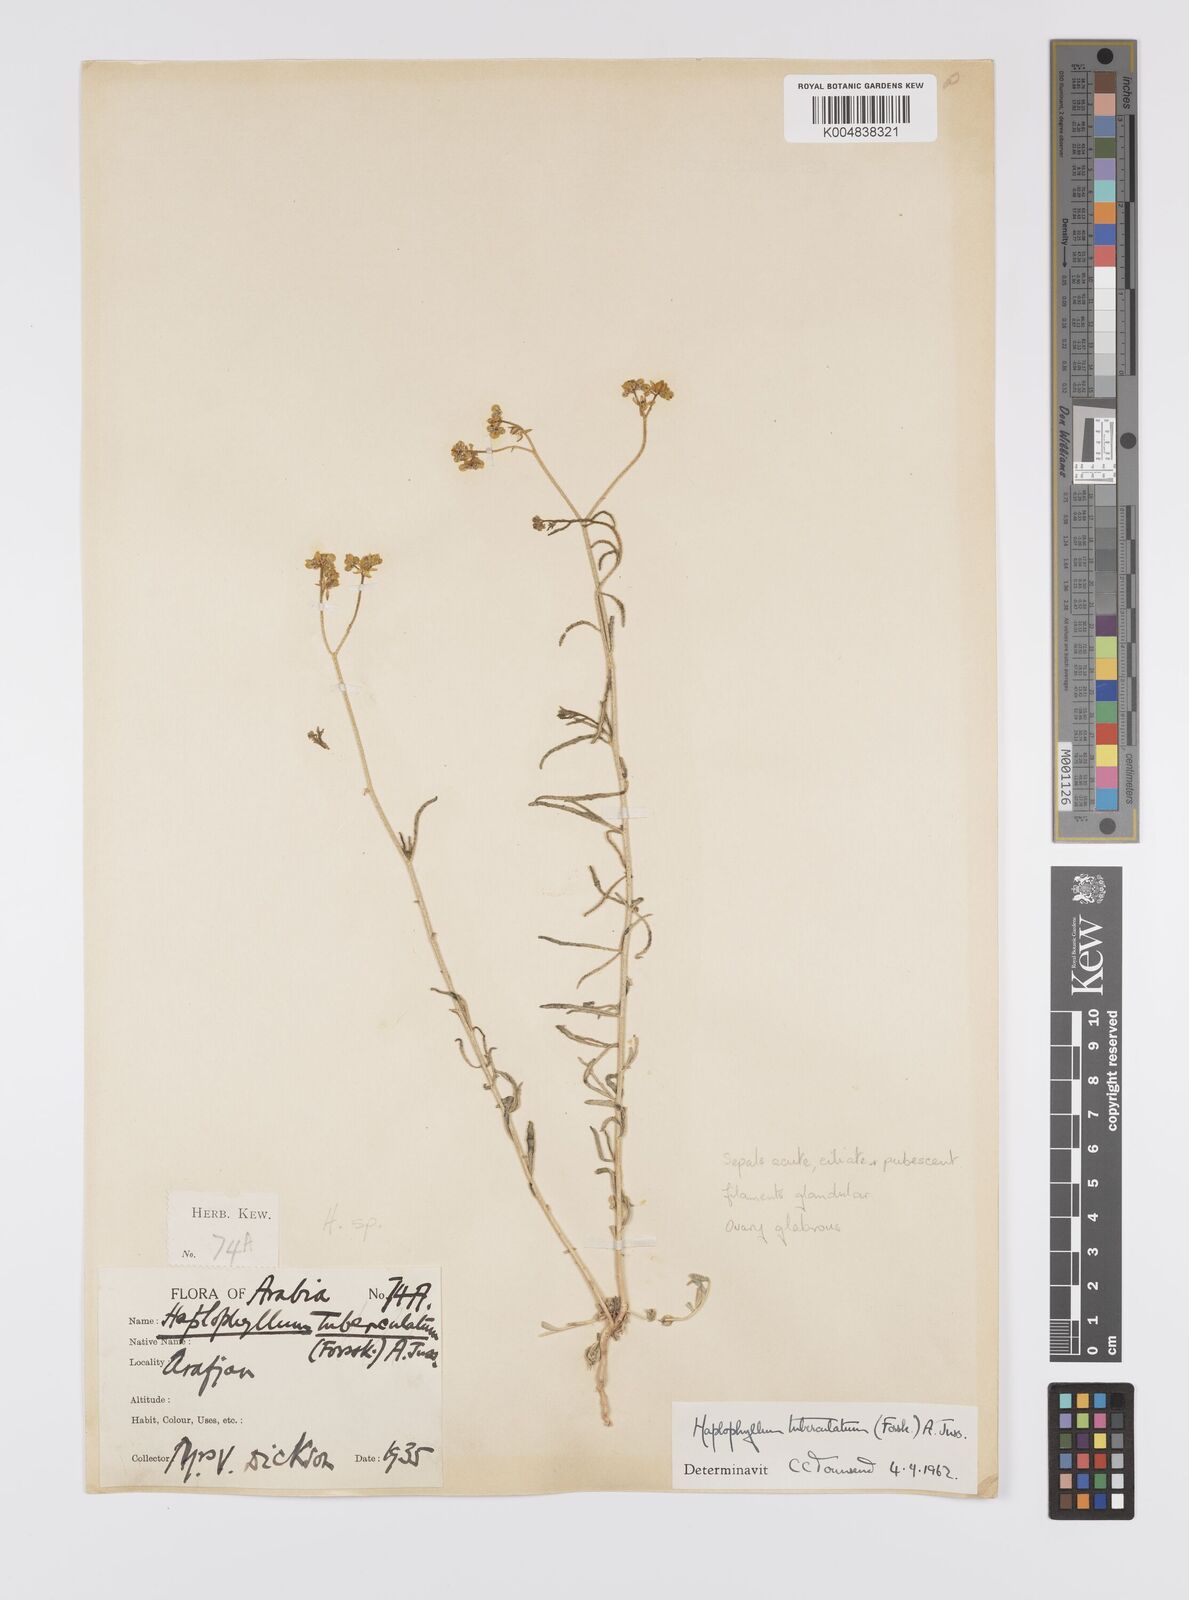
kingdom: Plantae
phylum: Tracheophyta
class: Magnoliopsida
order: Sapindales
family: Rutaceae
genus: Haplophyllum
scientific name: Haplophyllum tuberculatum
